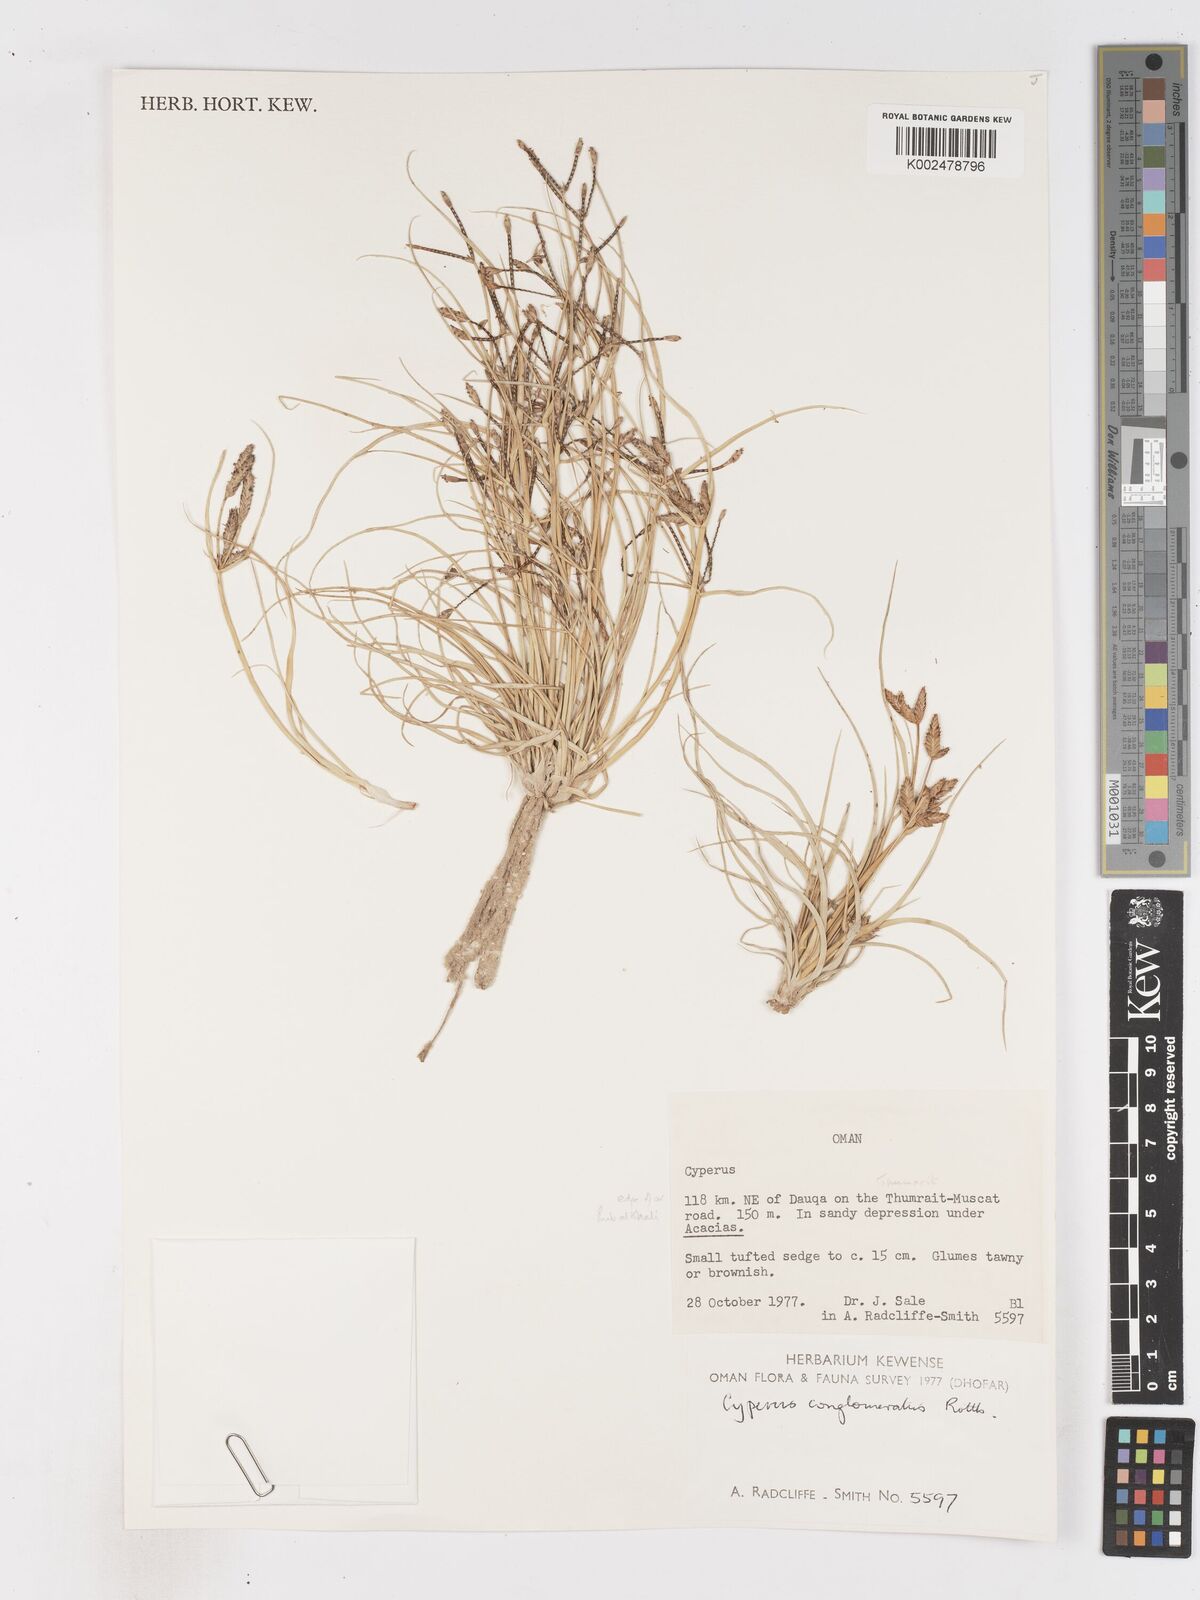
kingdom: Plantae
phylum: Tracheophyta
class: Liliopsida
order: Poales
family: Cyperaceae
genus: Cyperus
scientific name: Cyperus aucheri
